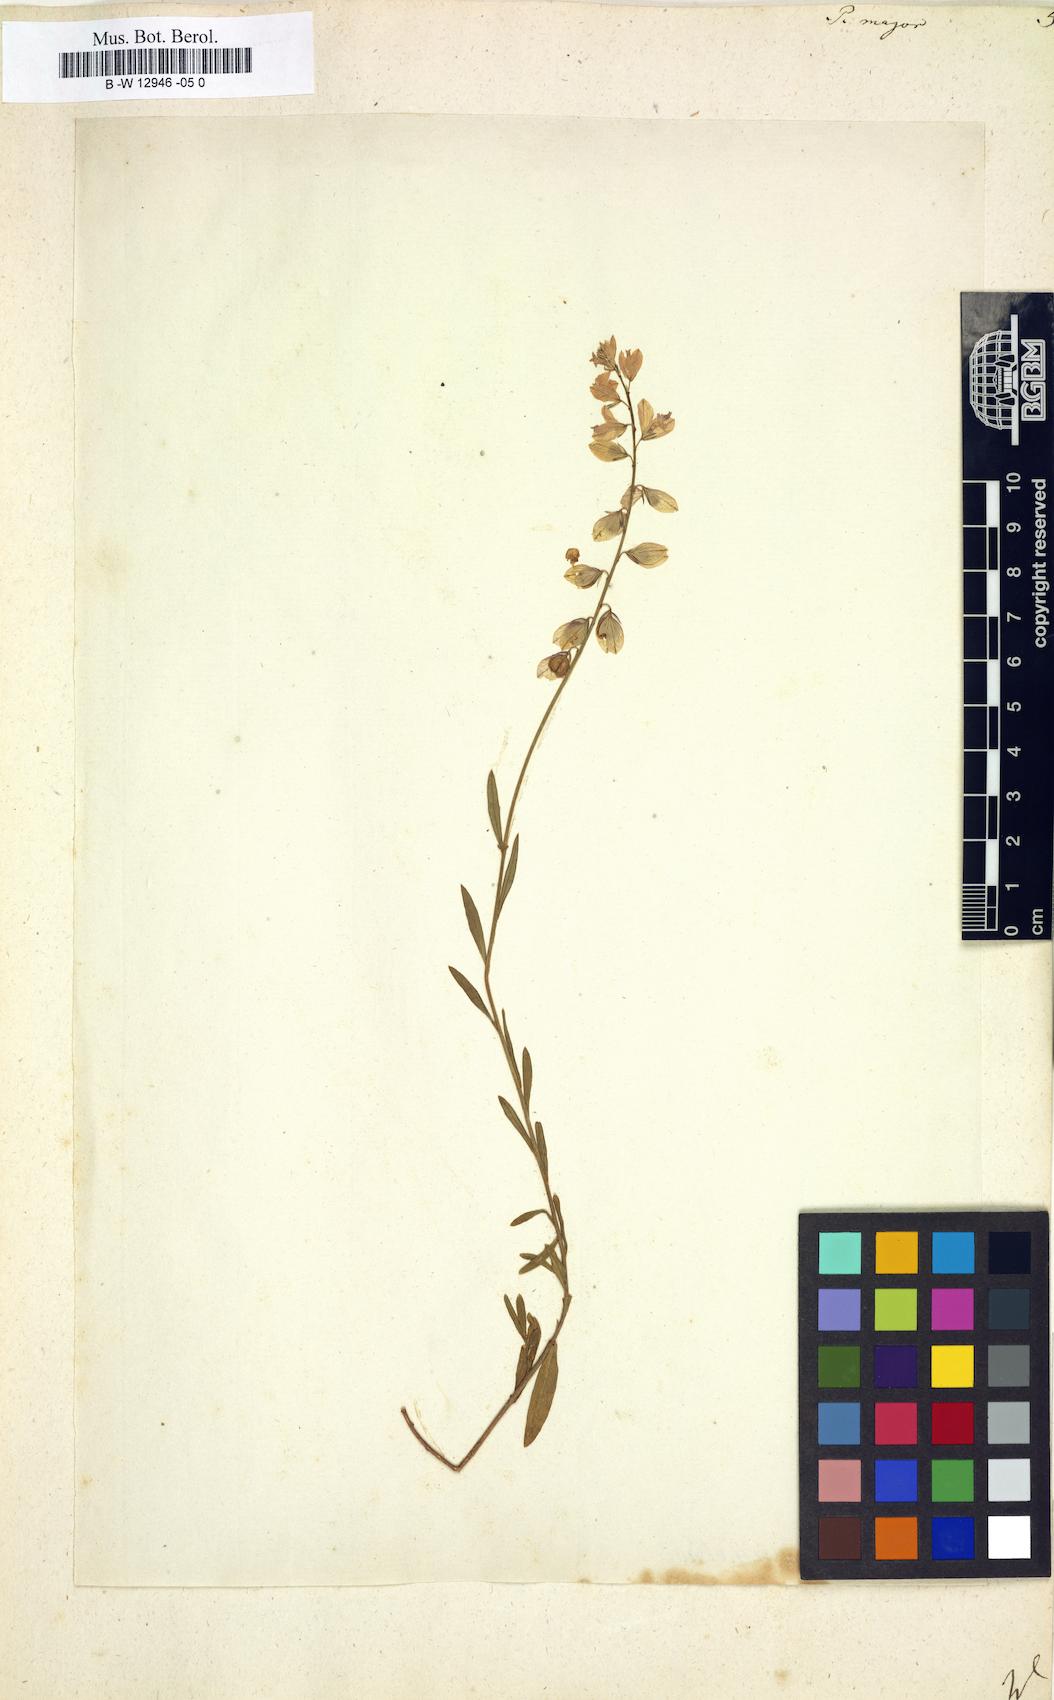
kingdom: Plantae
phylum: Tracheophyta
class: Magnoliopsida
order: Fabales
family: Polygalaceae
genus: Polygala
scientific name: Polygala major
